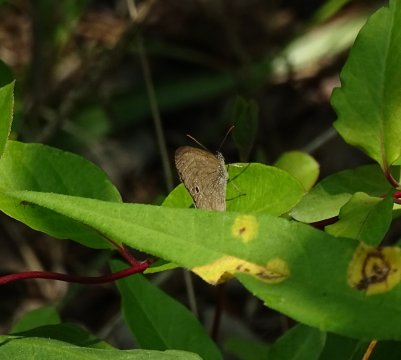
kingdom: Animalia
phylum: Arthropoda
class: Insecta
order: Lepidoptera
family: Nymphalidae
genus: Hermeuptychia
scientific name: Hermeuptychia hermes
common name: Carolina Satyr
